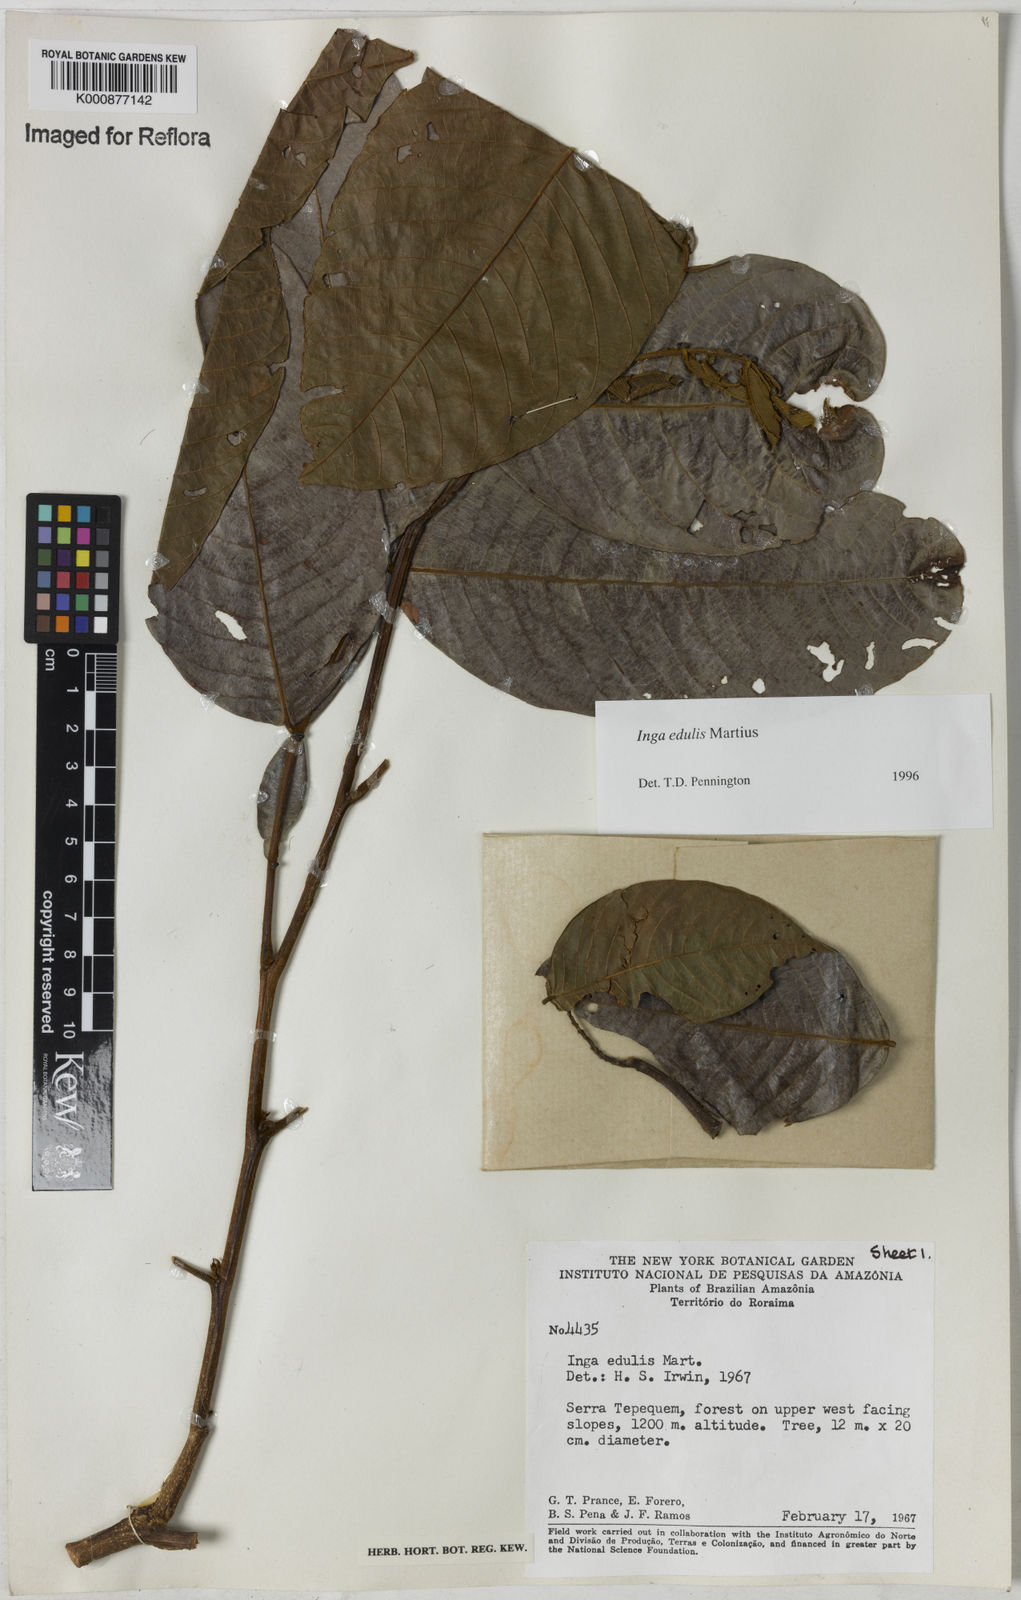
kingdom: Plantae
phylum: Tracheophyta
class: Magnoliopsida
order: Fabales
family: Fabaceae
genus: Inga
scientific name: Inga edulis
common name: Ice cream bean
